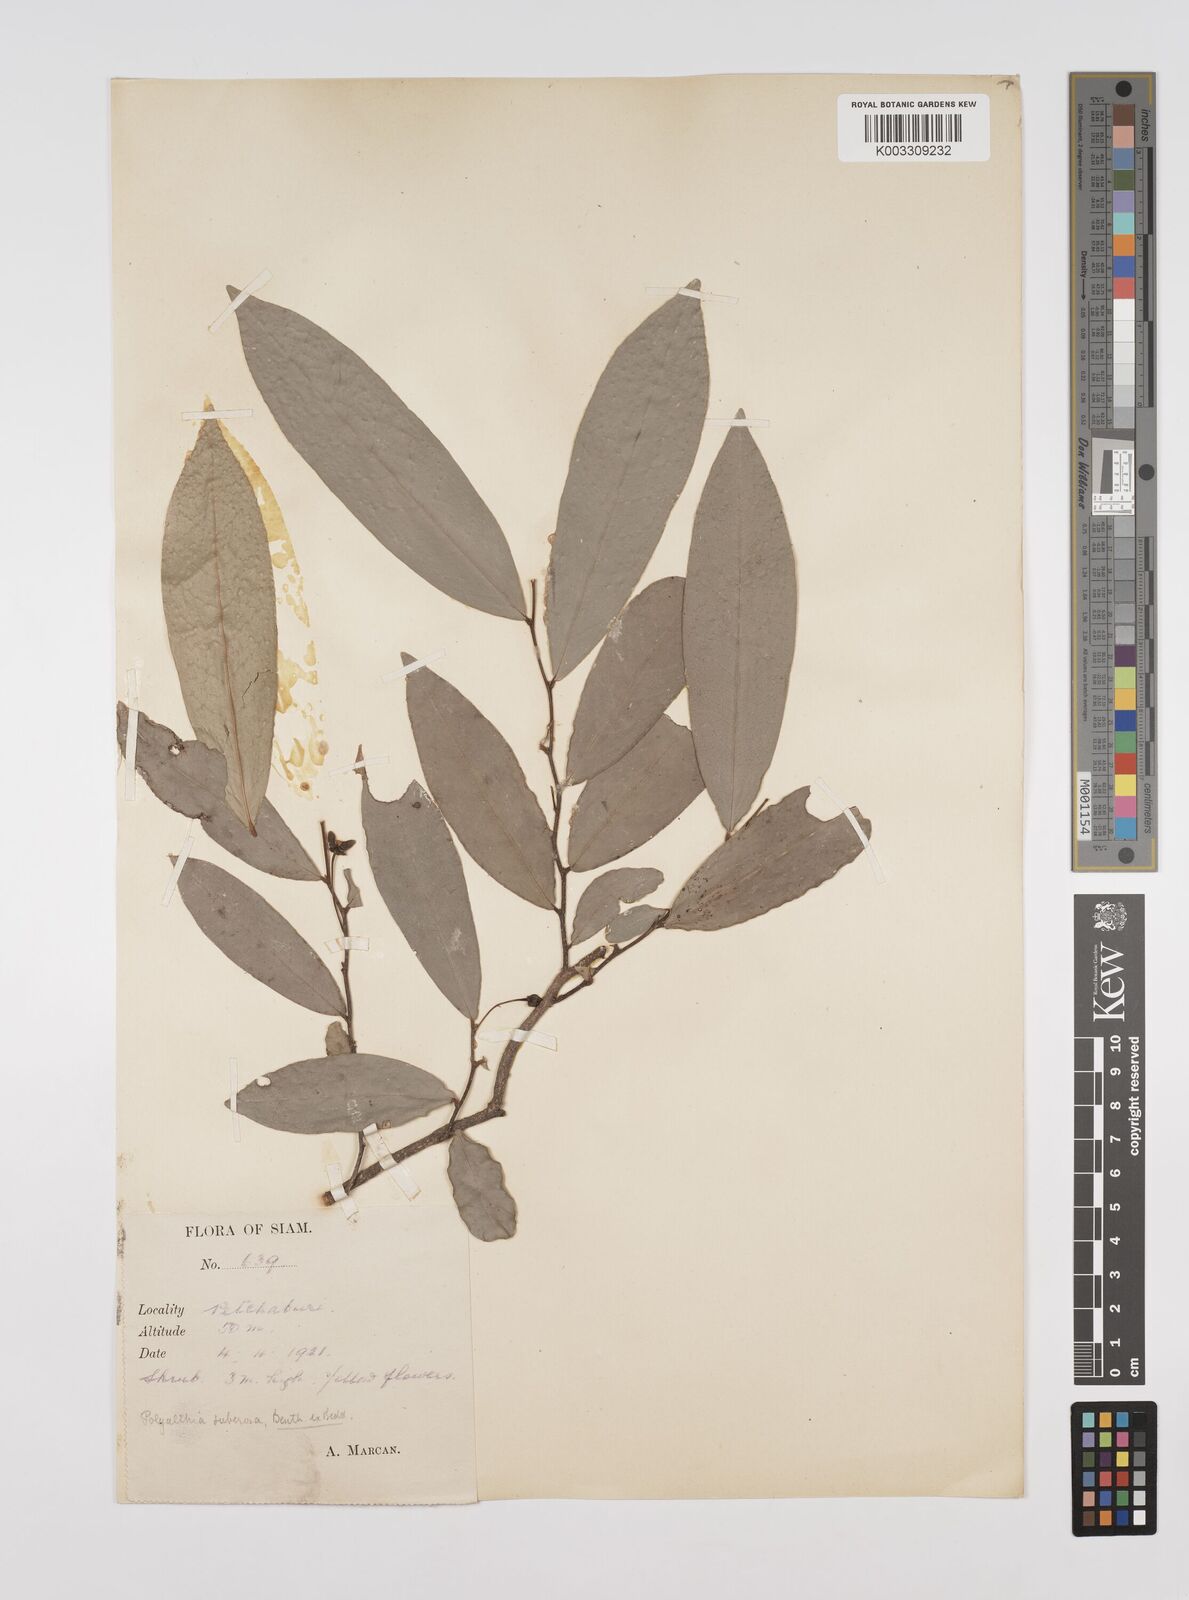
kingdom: Plantae
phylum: Tracheophyta
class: Magnoliopsida
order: Magnoliales
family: Annonaceae
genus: Polyalthia
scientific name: Polyalthia suberosa
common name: Polyalthia plant
